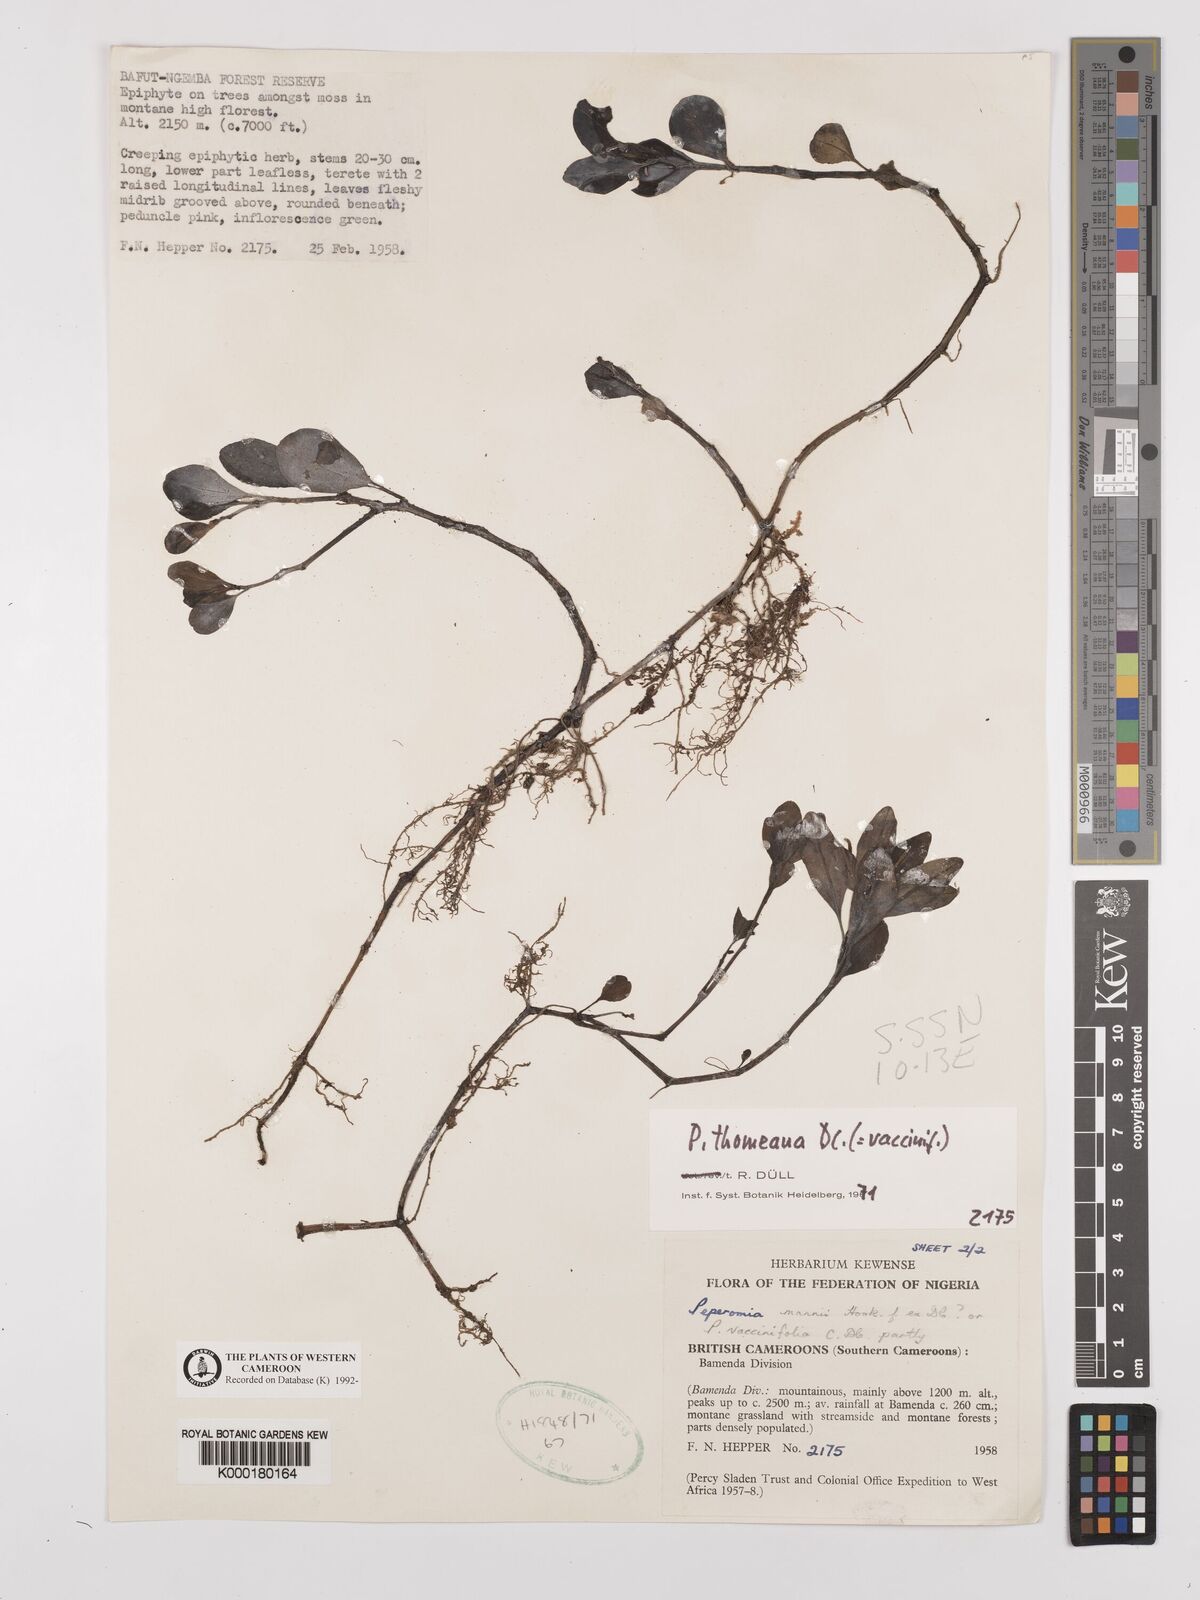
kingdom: Plantae
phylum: Tracheophyta
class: Magnoliopsida
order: Piperales
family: Piperaceae
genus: Peperomia
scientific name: Peperomia thomeana
